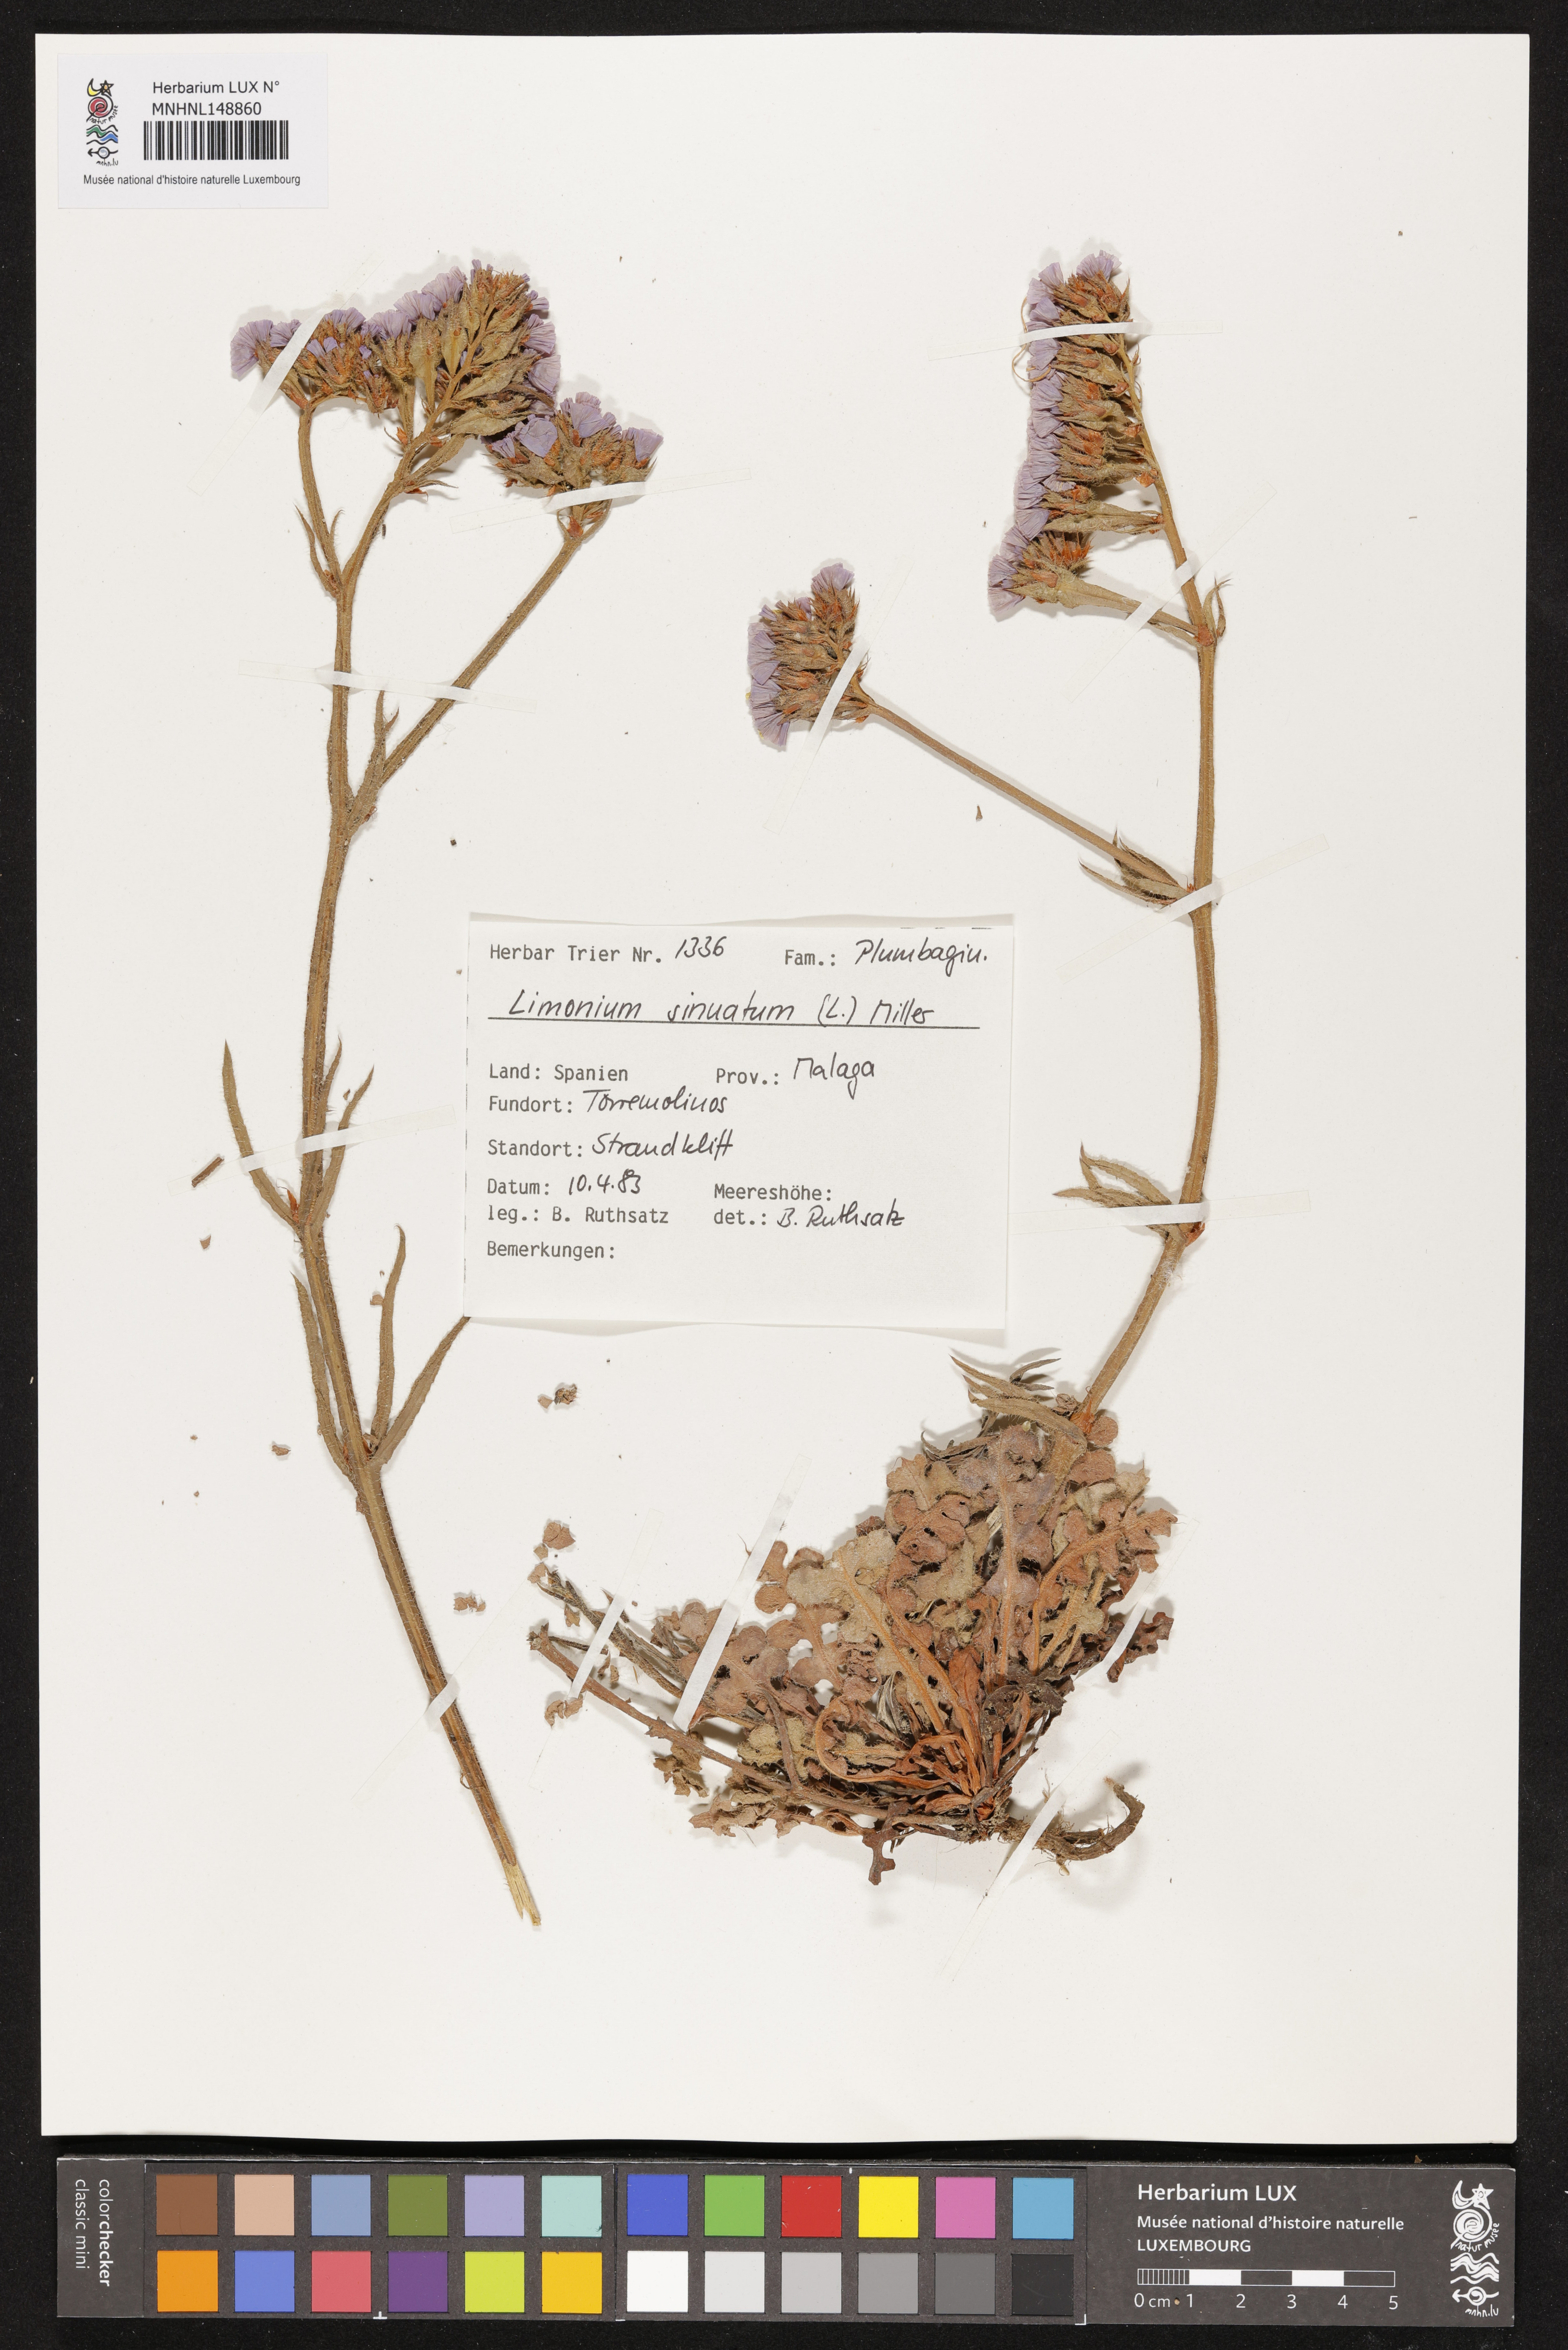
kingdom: Plantae
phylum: Tracheophyta
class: Magnoliopsida
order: Caryophyllales
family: Plumbaginaceae
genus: Limonium
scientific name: Limonium sinuatum
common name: Statice
